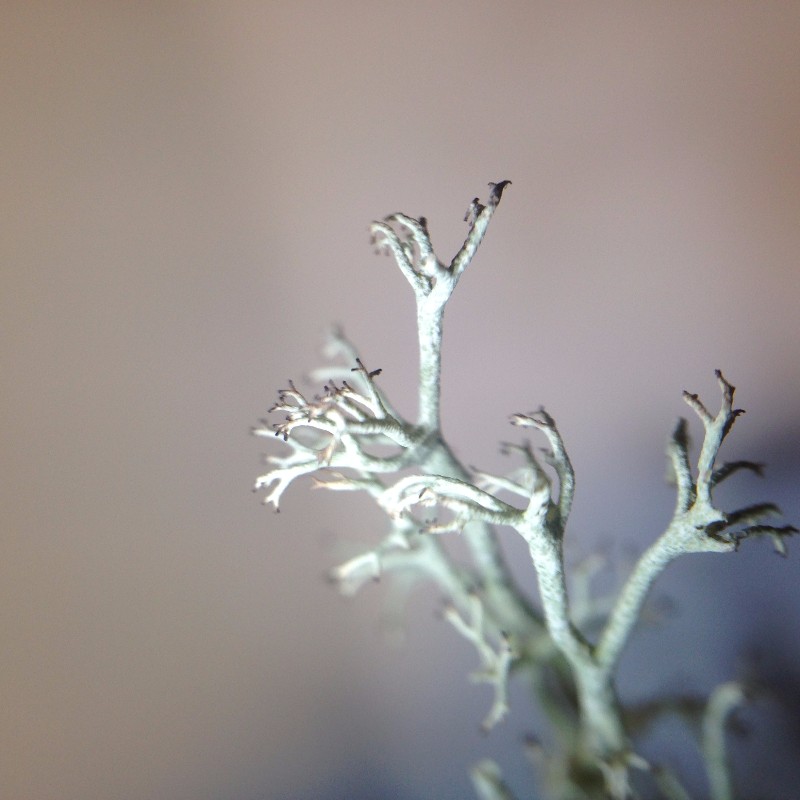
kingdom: Fungi
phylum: Ascomycota
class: Lecanoromycetes
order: Lecanorales
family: Cladoniaceae
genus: Cladonia
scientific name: Cladonia ciliata
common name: spinkel rensdyrlav
